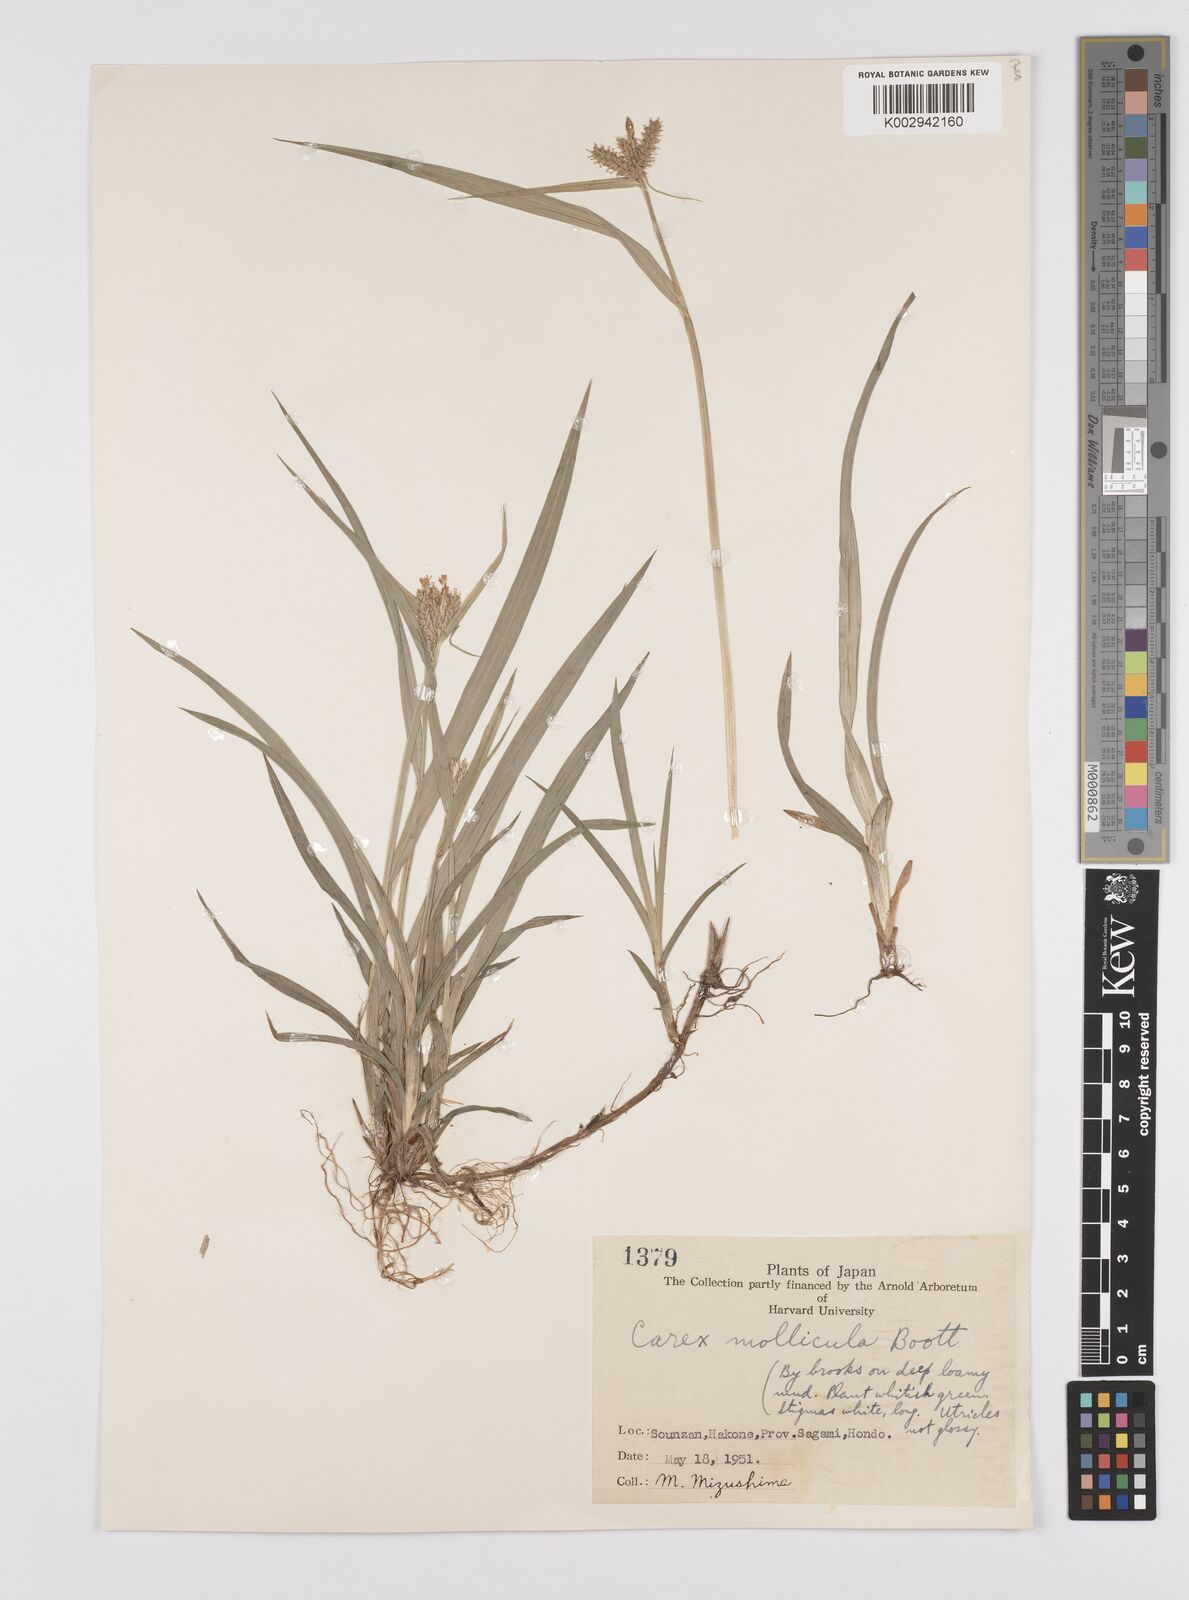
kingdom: Plantae
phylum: Tracheophyta
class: Liliopsida
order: Poales
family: Cyperaceae
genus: Carex
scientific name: Carex mollicula
